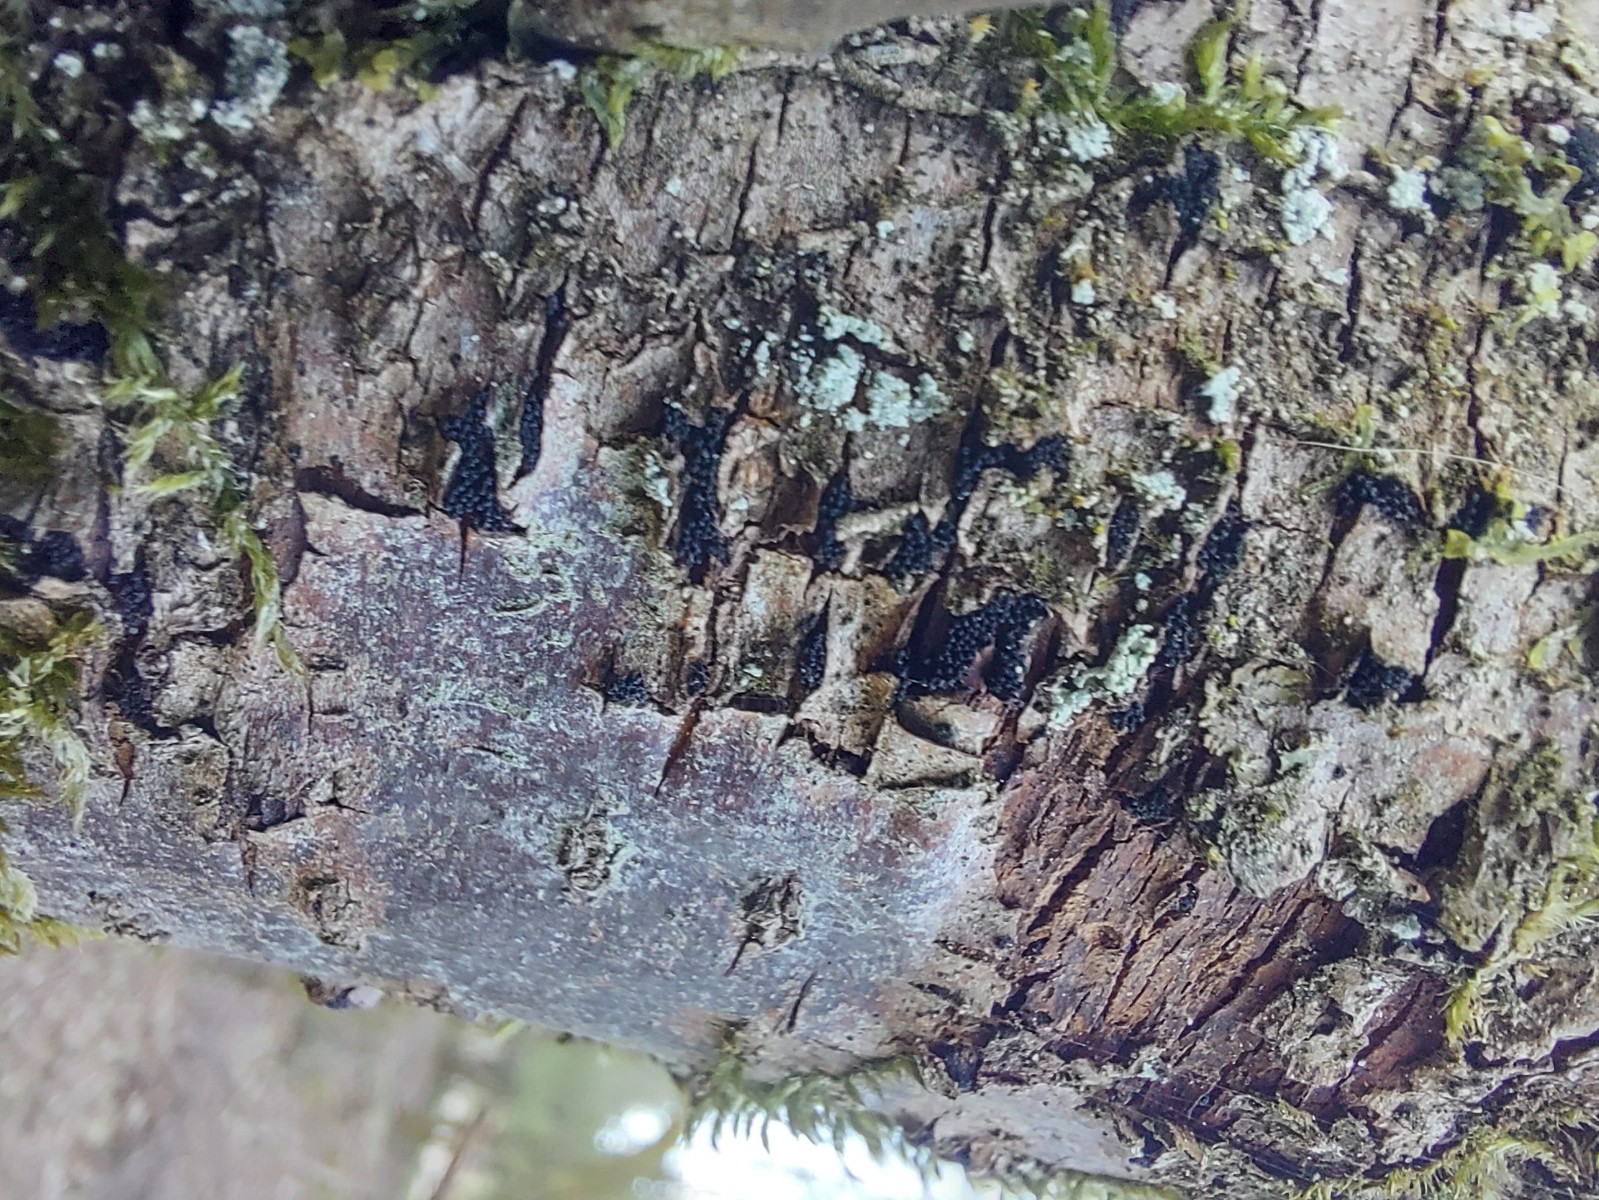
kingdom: Fungi
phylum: Ascomycota
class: Sordariomycetes
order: Xylariales
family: Diatrypaceae
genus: Eutypella
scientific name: Eutypella prunastri
